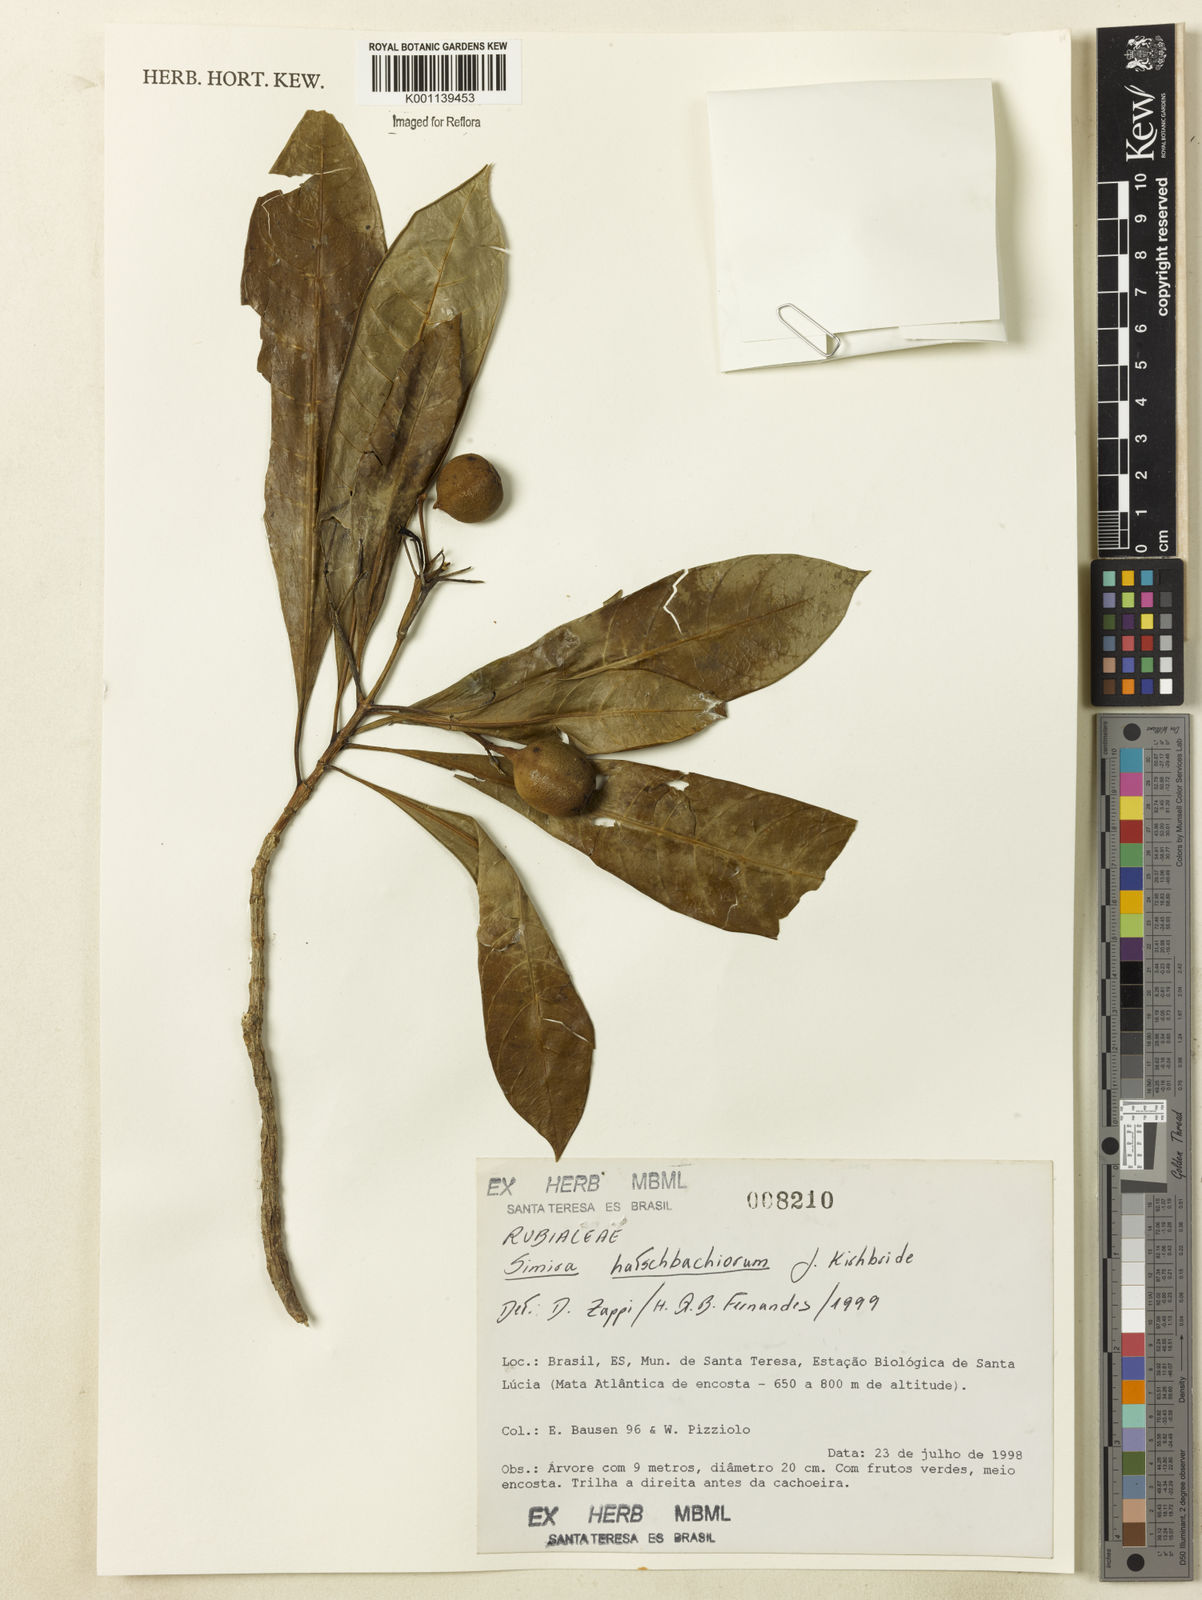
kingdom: Plantae
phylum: Tracheophyta
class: Magnoliopsida
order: Gentianales
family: Rubiaceae
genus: Simira
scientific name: Simira hatschbachiorum
